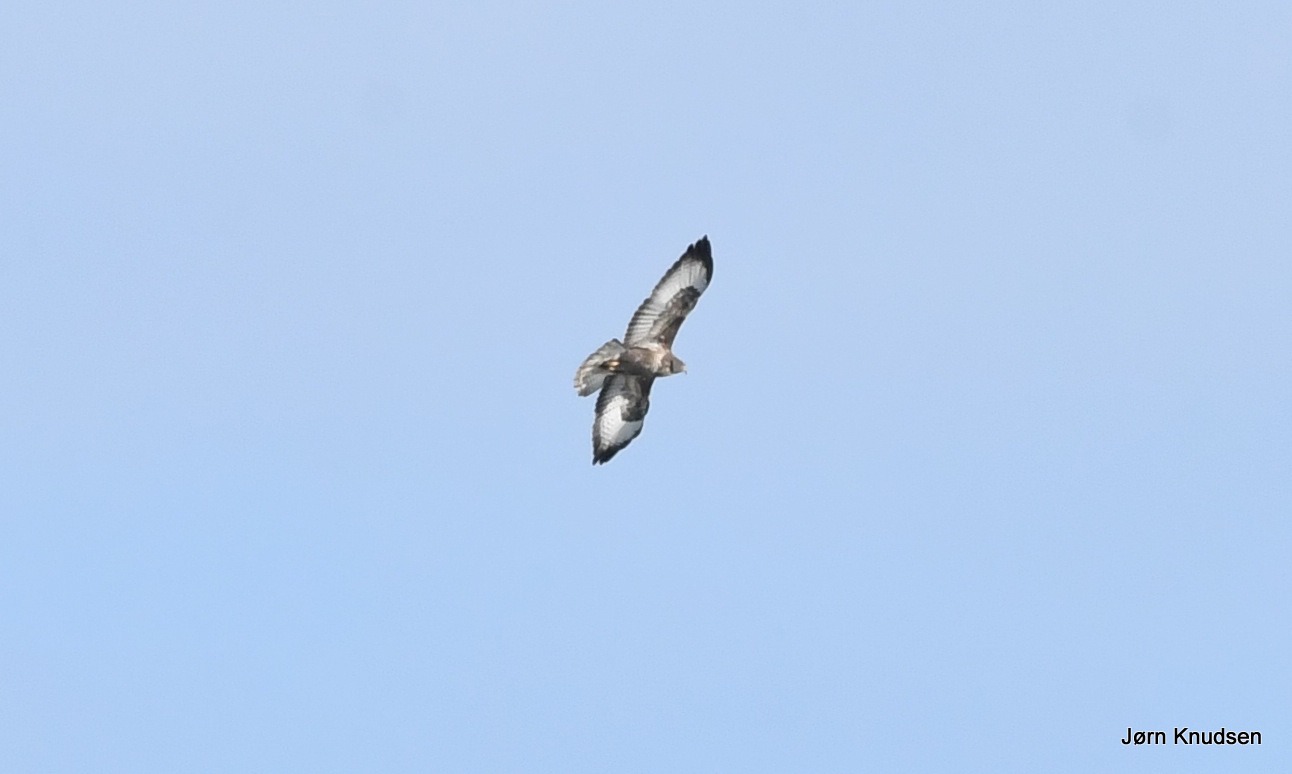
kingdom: Animalia
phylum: Chordata
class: Aves
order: Accipitriformes
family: Accipitridae
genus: Buteo
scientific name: Buteo buteo
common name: Musvåge
